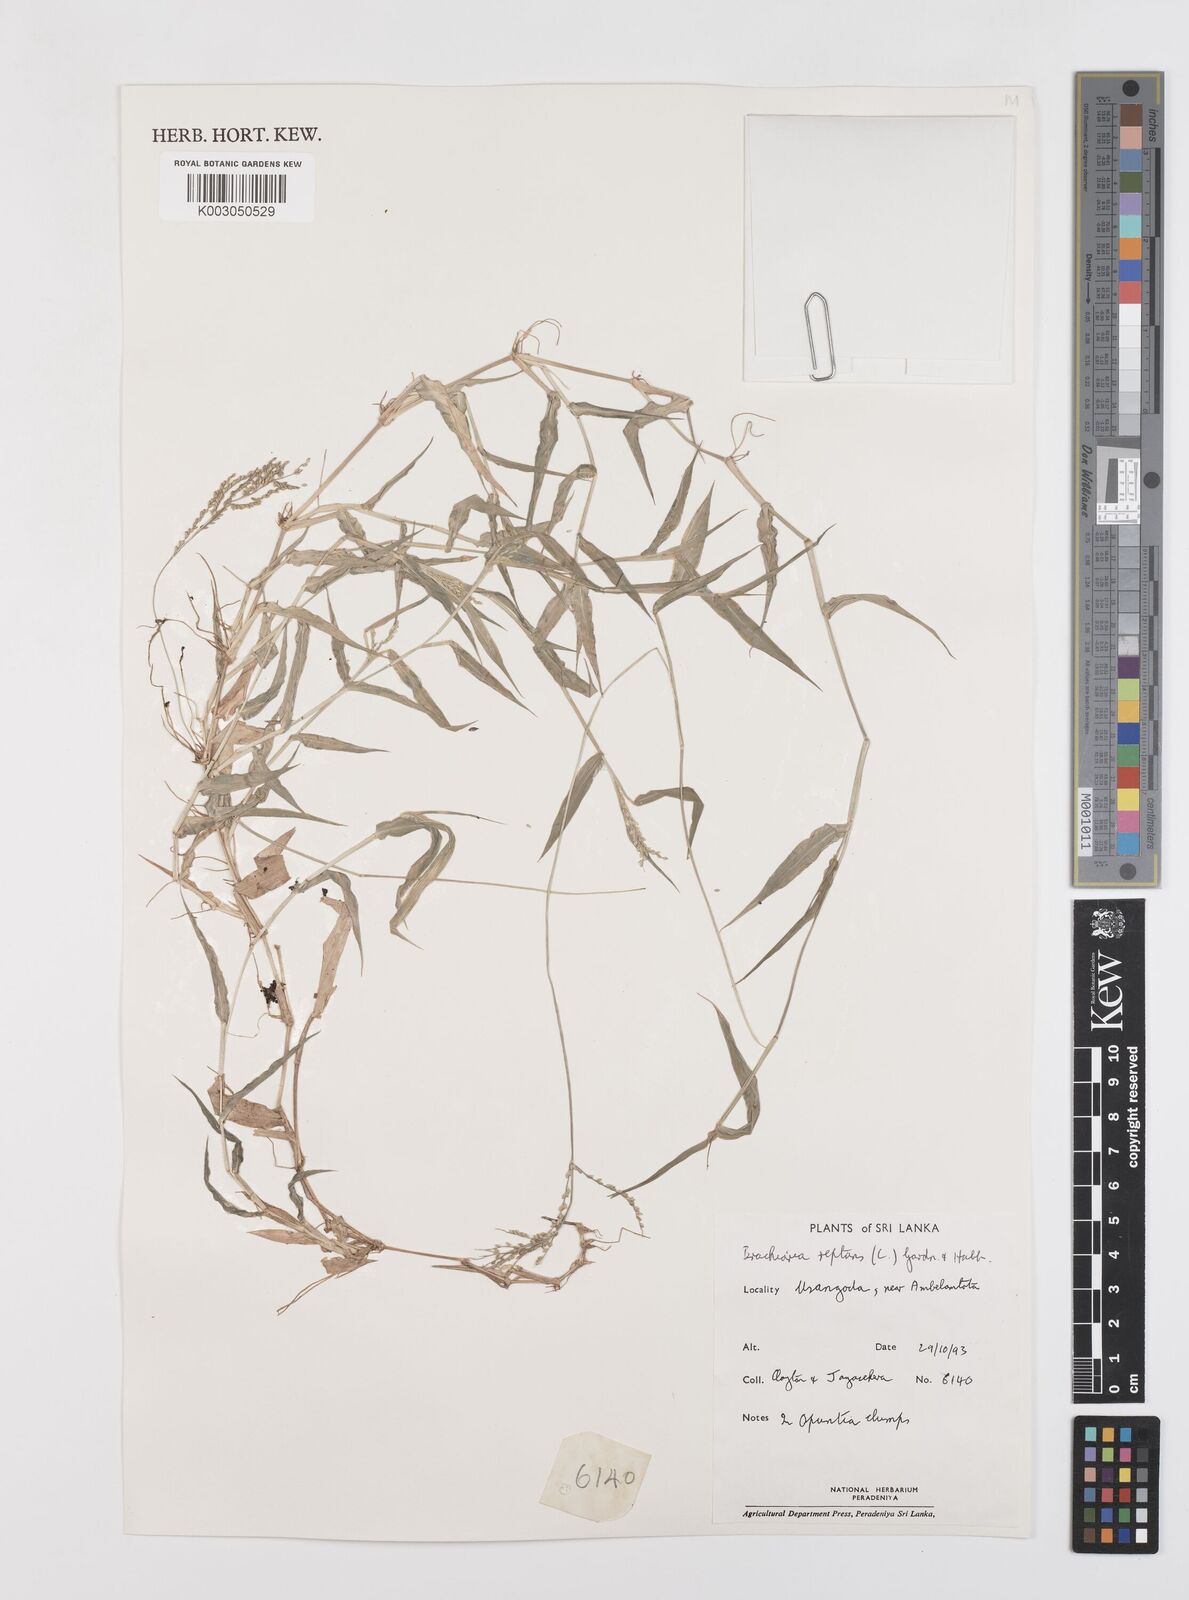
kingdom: Plantae
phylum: Tracheophyta
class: Liliopsida
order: Poales
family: Poaceae
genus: Urochloa
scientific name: Urochloa reptans
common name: Sprawling signalgrass
